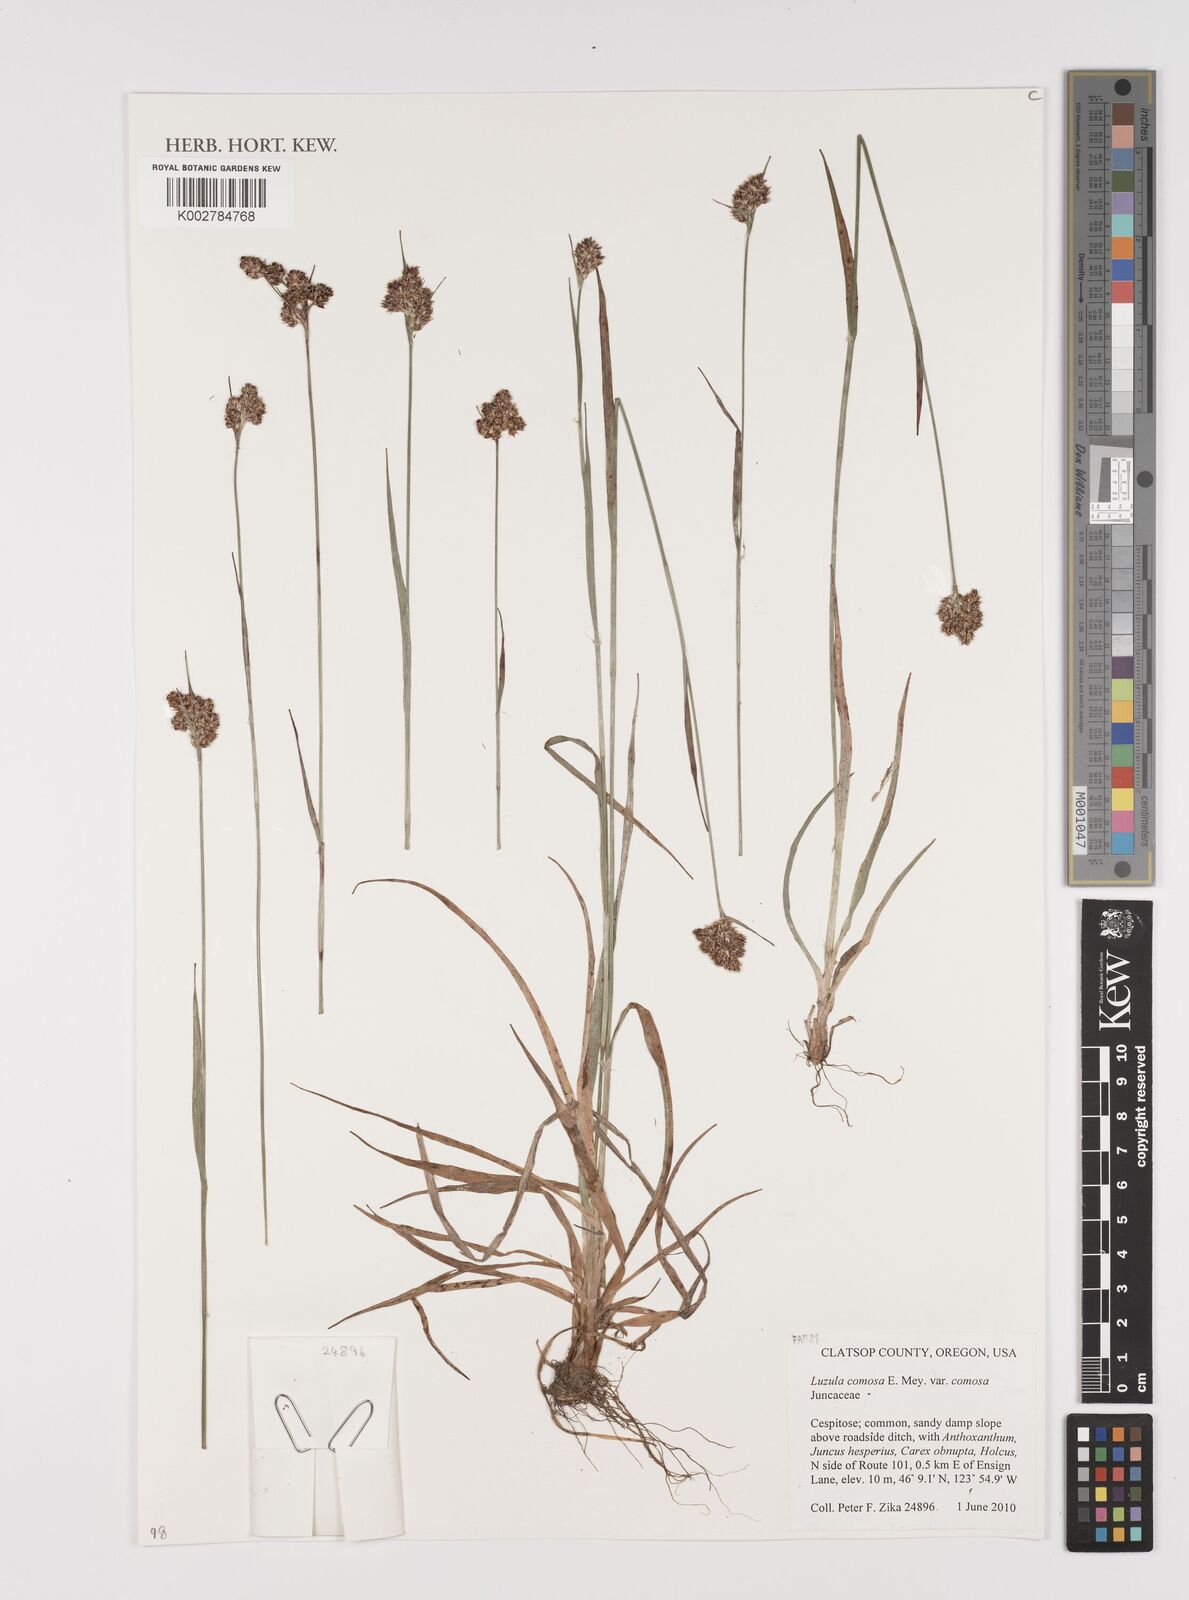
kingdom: Plantae
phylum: Tracheophyta
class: Liliopsida
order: Poales
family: Juncaceae
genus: Luzula
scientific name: Luzula comosa
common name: Pacific woodrush
